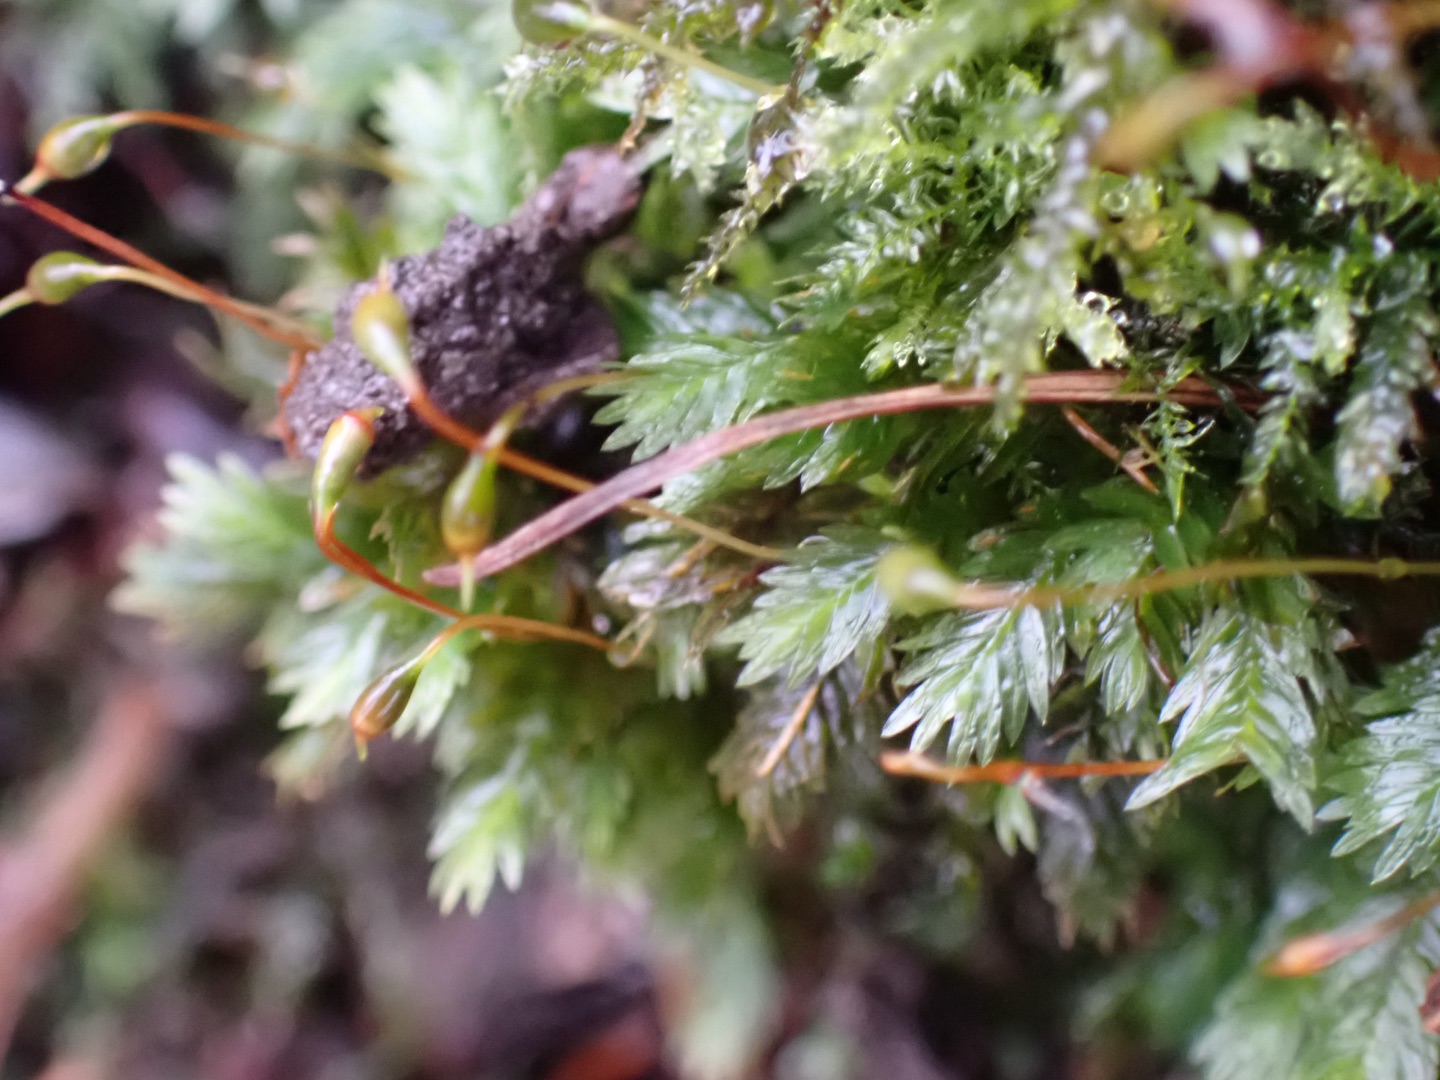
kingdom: Plantae
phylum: Bryophyta
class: Bryopsida
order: Dicranales
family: Fissidentaceae
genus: Fissidens
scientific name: Fissidens
